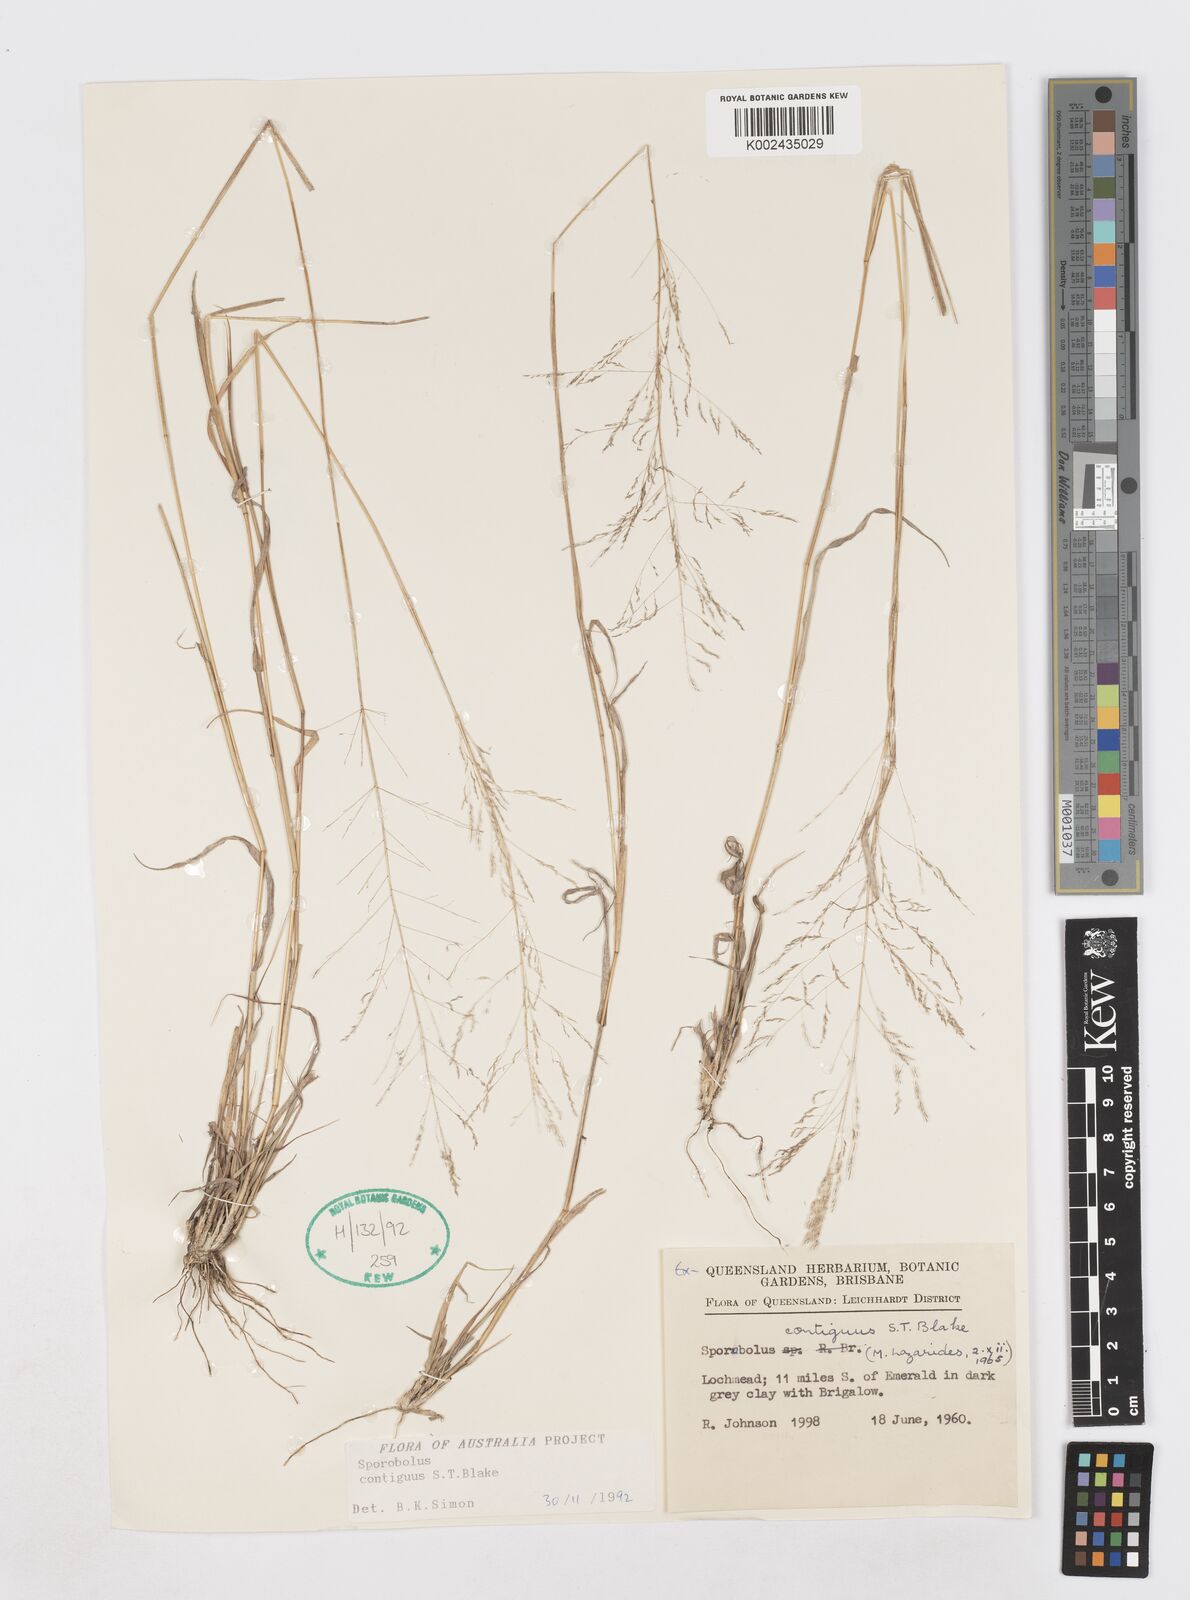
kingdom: Plantae
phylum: Tracheophyta
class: Liliopsida
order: Poales
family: Poaceae
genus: Sporobolus
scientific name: Sporobolus contiguus
